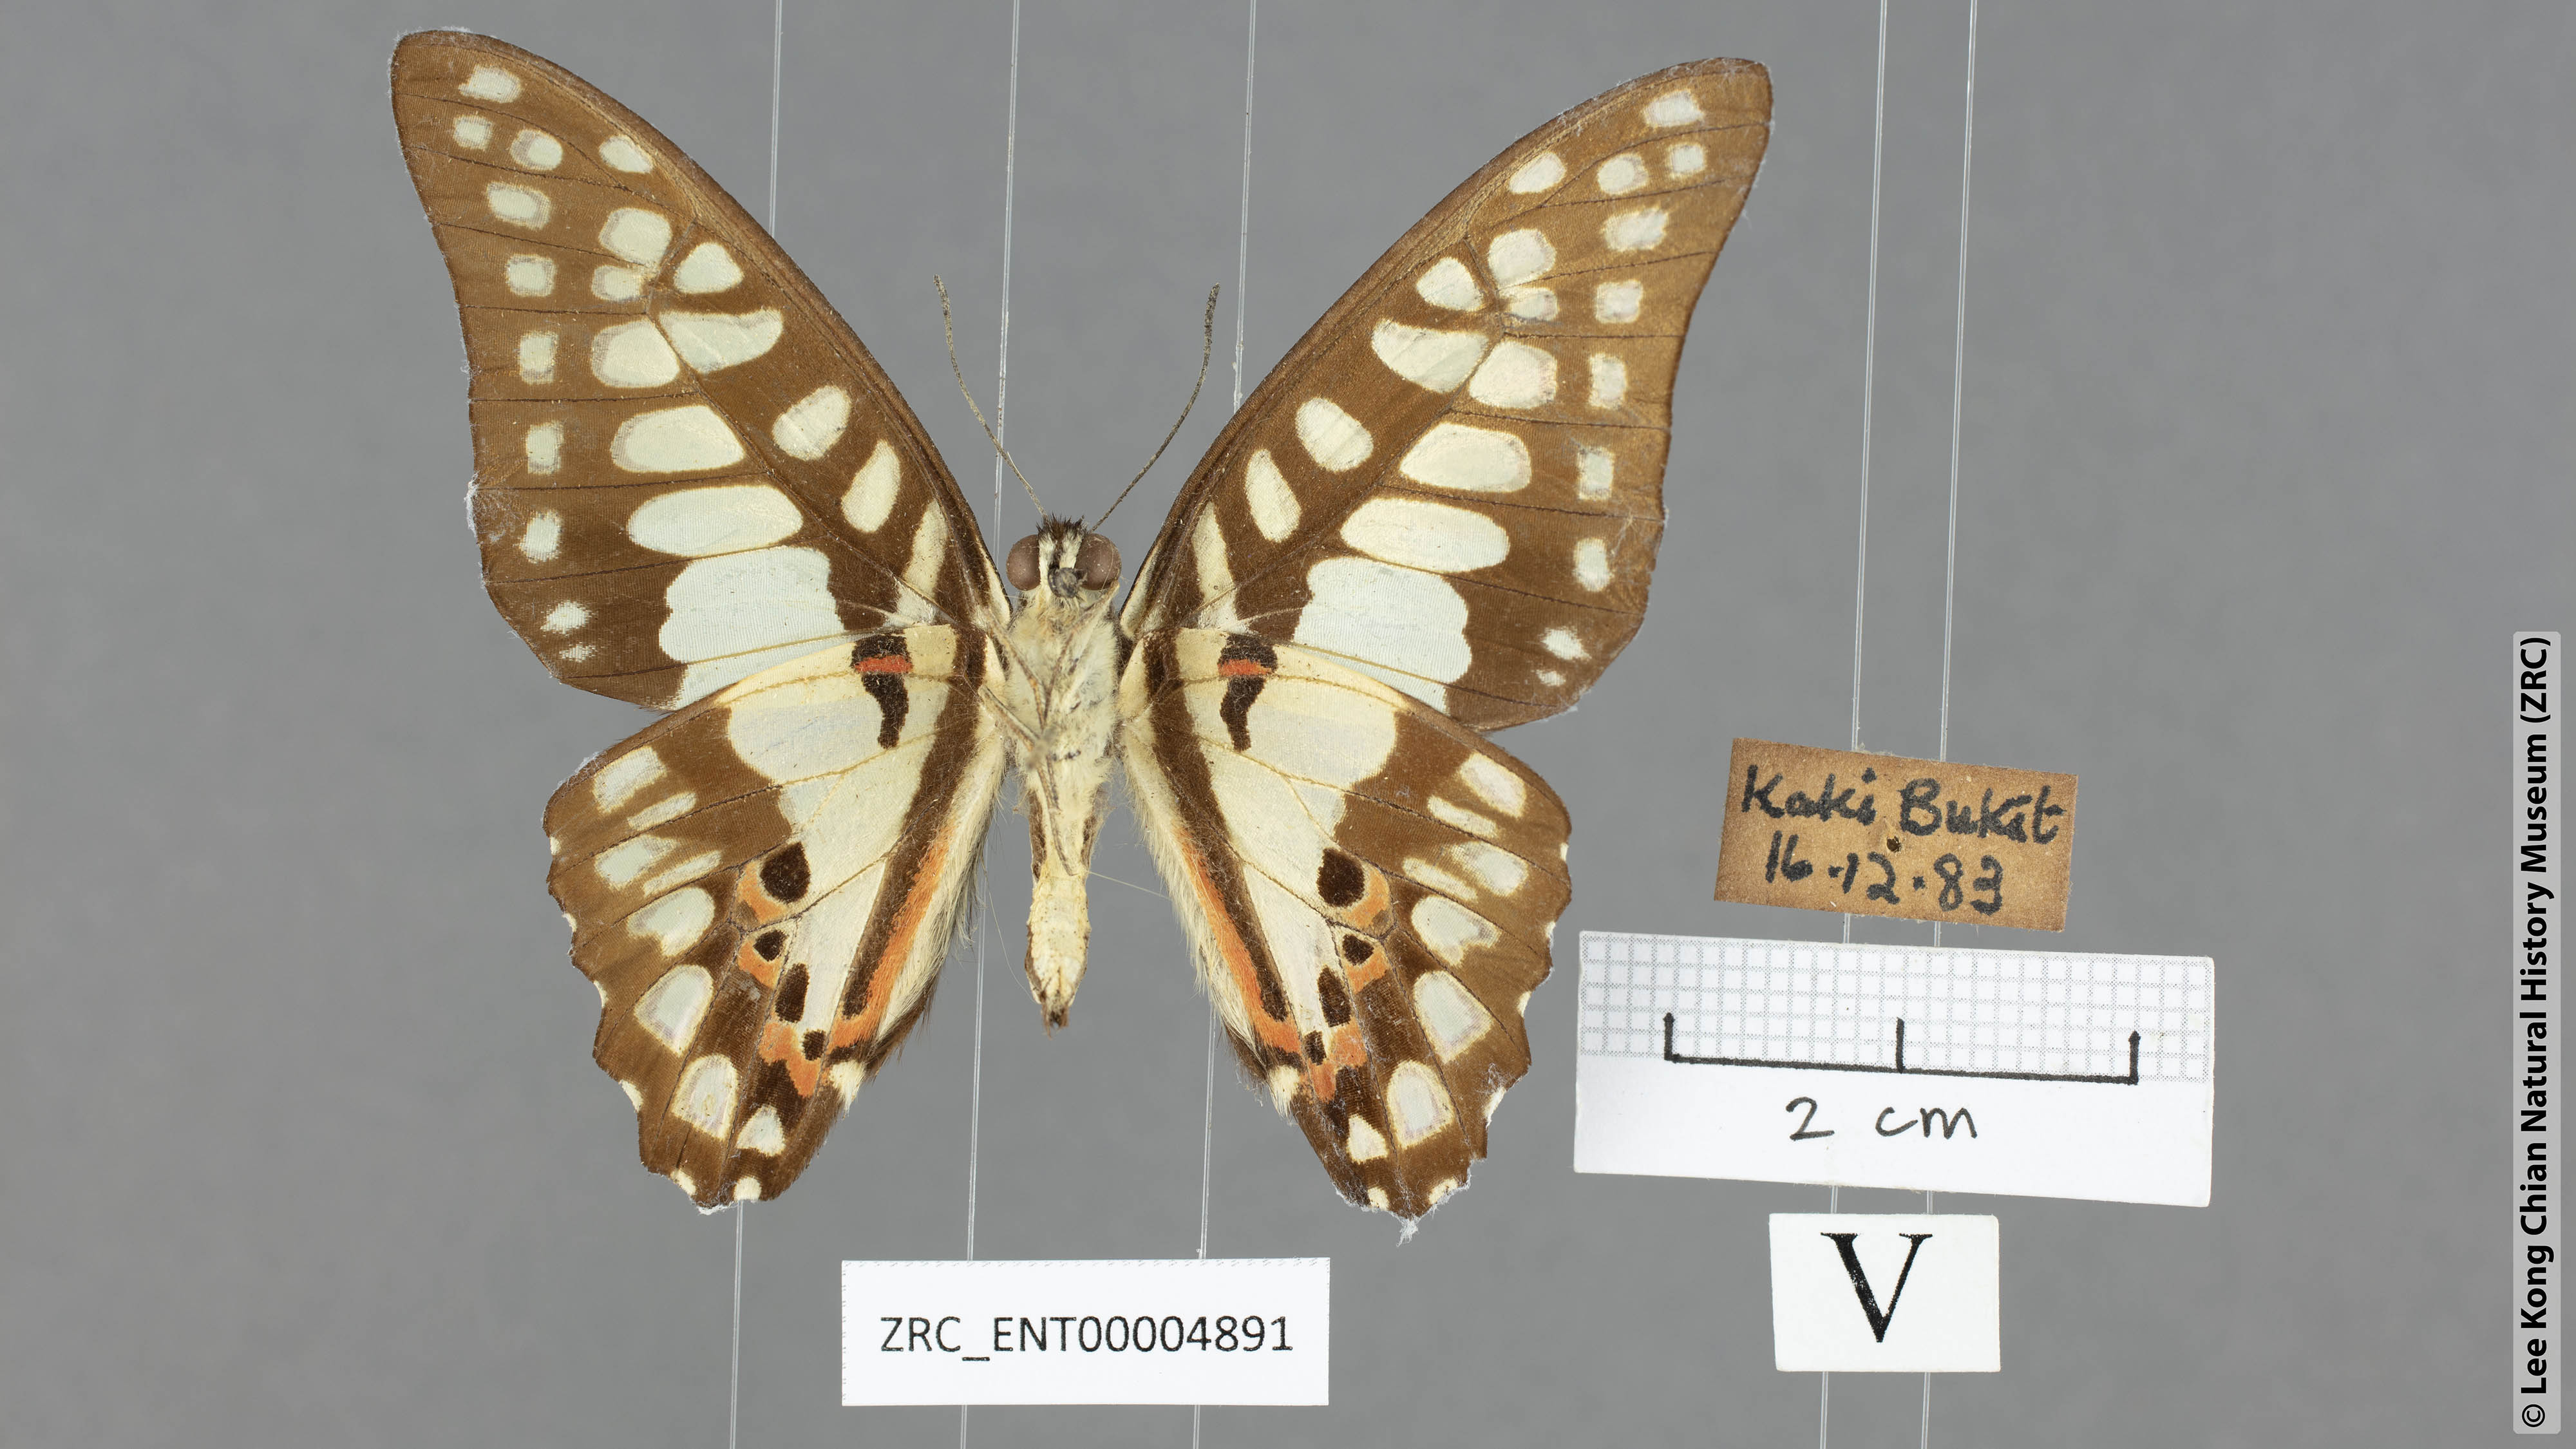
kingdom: Animalia
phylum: Arthropoda
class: Insecta
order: Lepidoptera
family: Papilionidae
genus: Graphium
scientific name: Graphium doson
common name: Common jay
